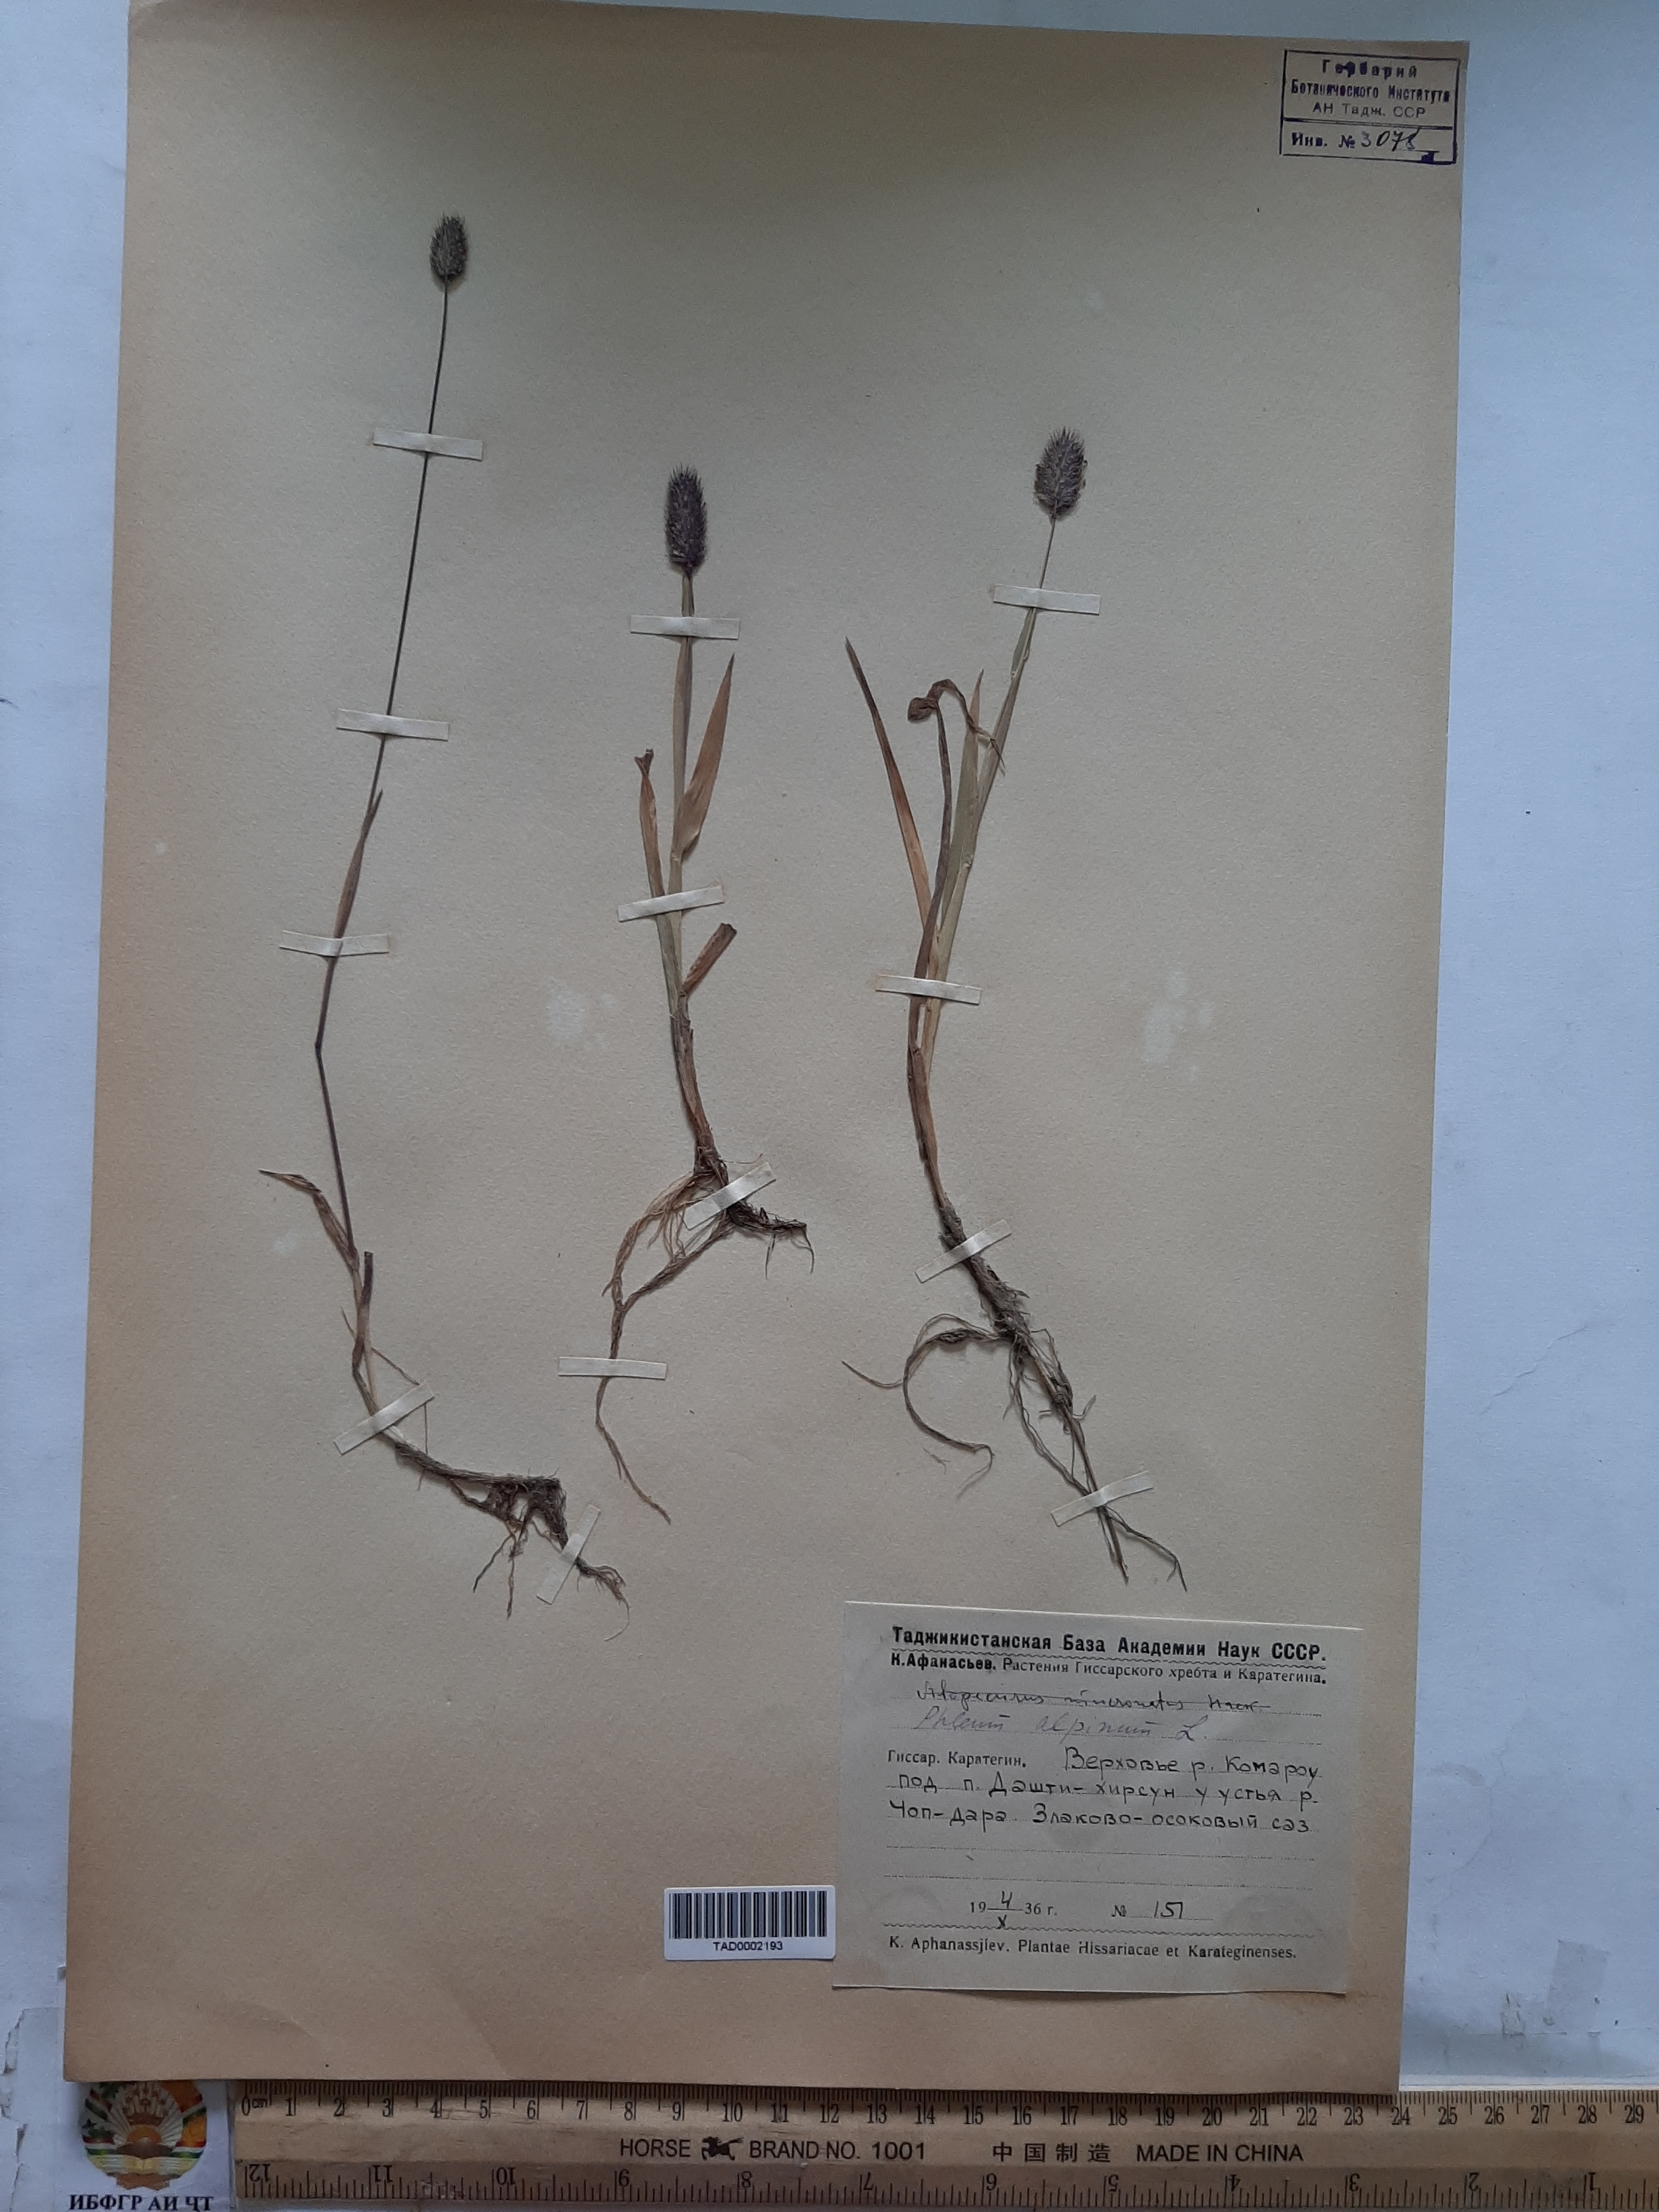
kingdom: Plantae
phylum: Tracheophyta
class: Liliopsida
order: Poales
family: Poaceae
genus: Phleum
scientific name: Phleum alpinum
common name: Alpine cat's-tail
